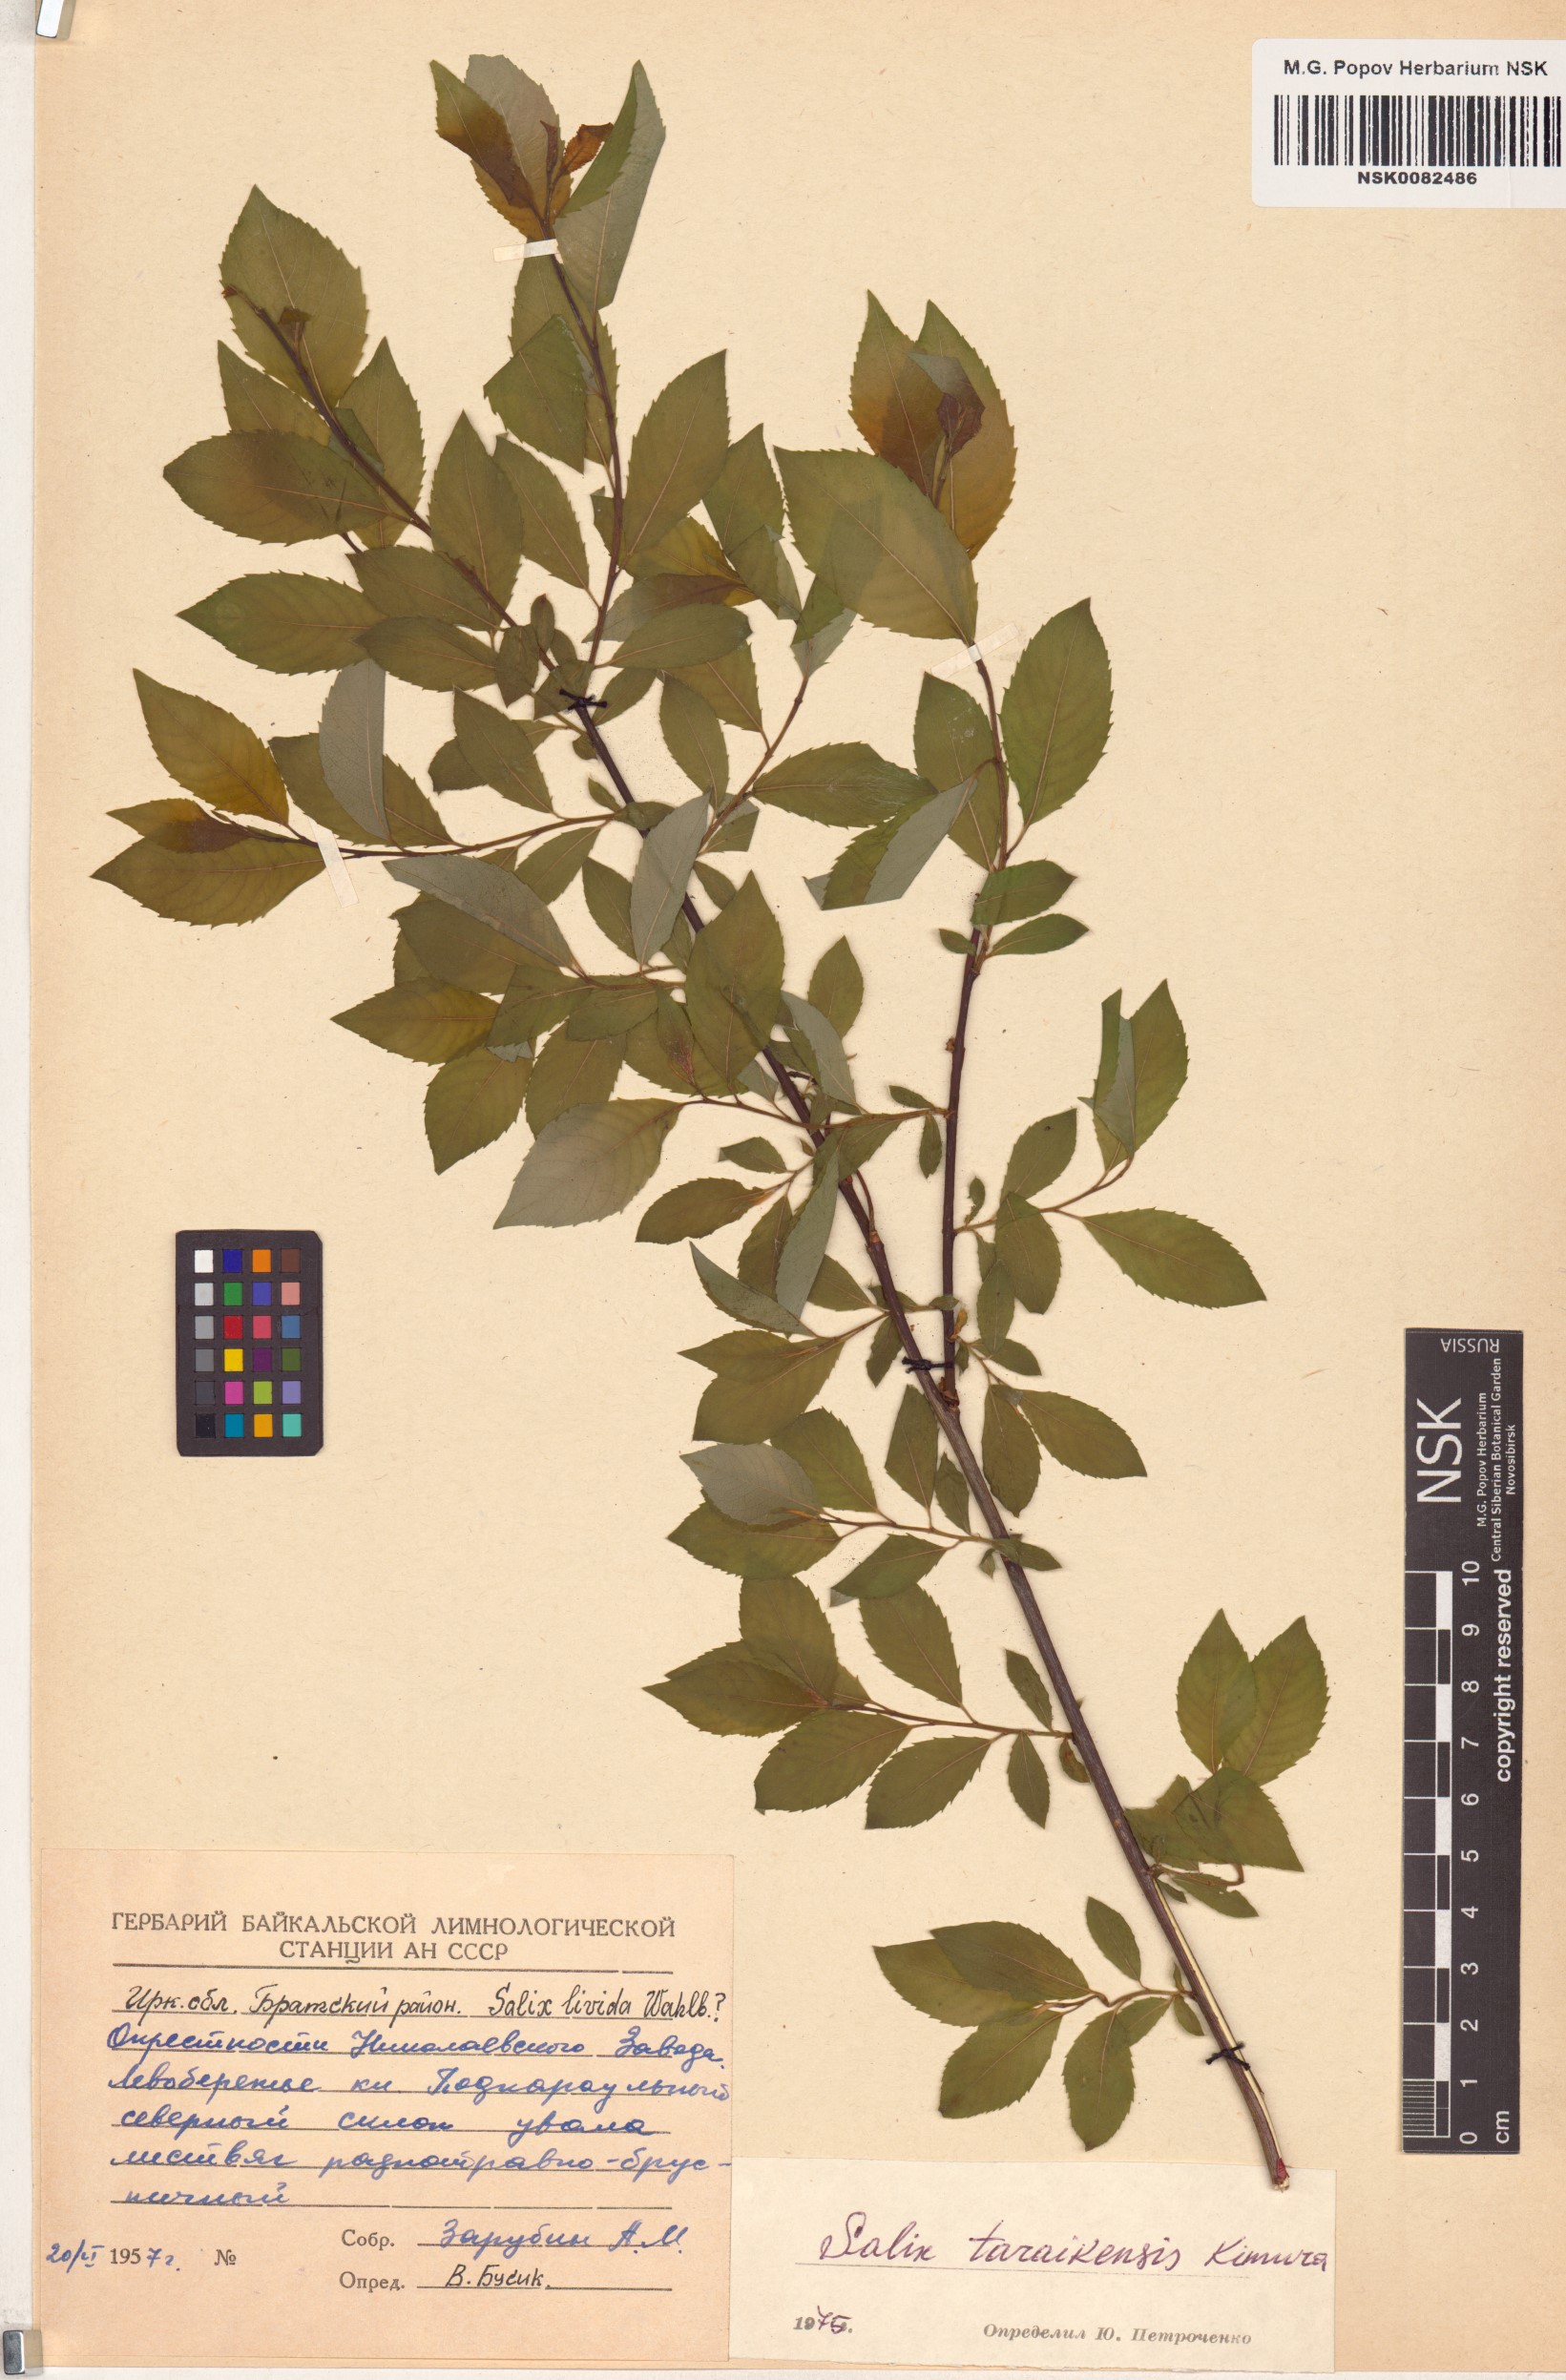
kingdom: Plantae
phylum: Tracheophyta
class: Magnoliopsida
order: Malpighiales
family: Salicaceae
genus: Salix
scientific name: Salix taraikensis
